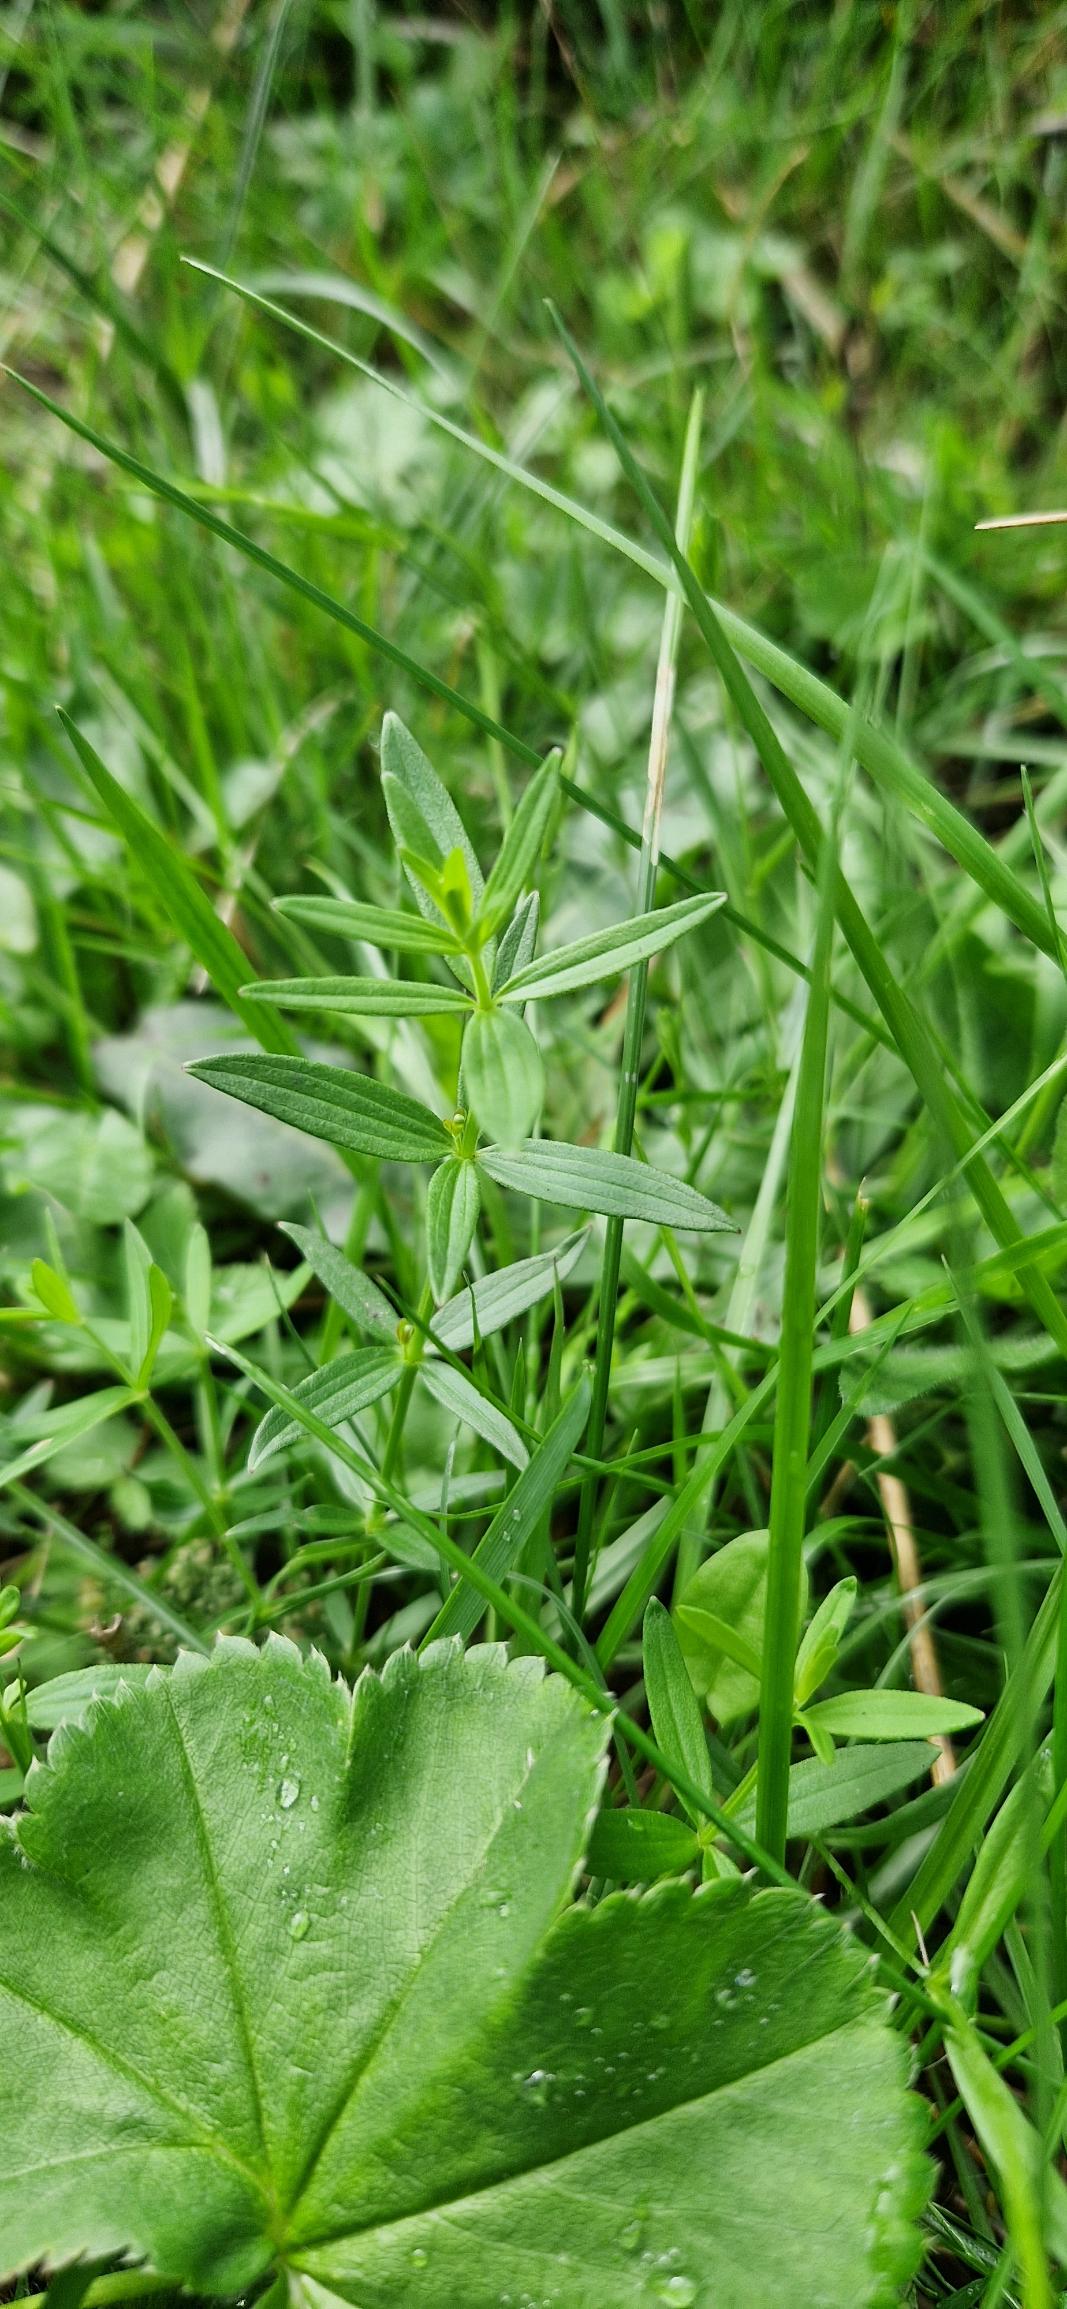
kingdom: Plantae
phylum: Tracheophyta
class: Magnoliopsida
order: Gentianales
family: Rubiaceae
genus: Galium
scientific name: Galium boreale
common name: Trenervet snerre
